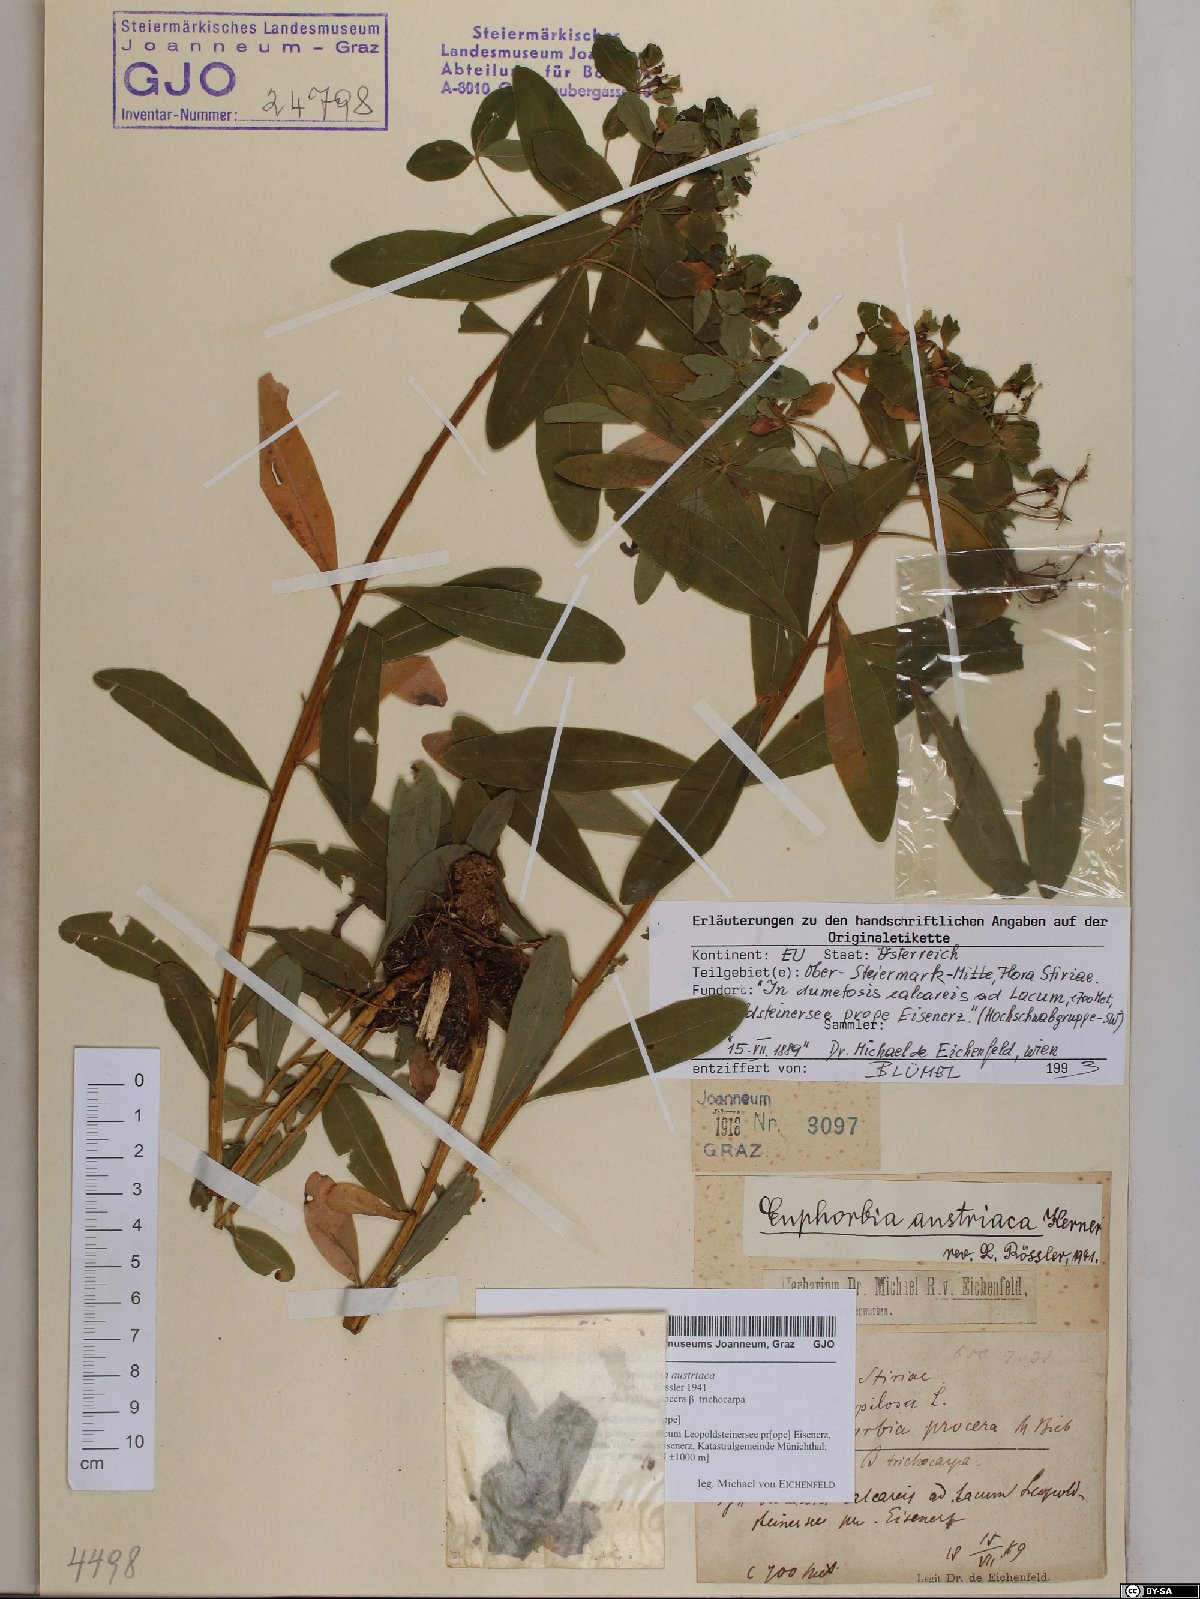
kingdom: Plantae
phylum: Tracheophyta
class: Magnoliopsida
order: Malpighiales
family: Euphorbiaceae
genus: Euphorbia
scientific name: Euphorbia austriaca
